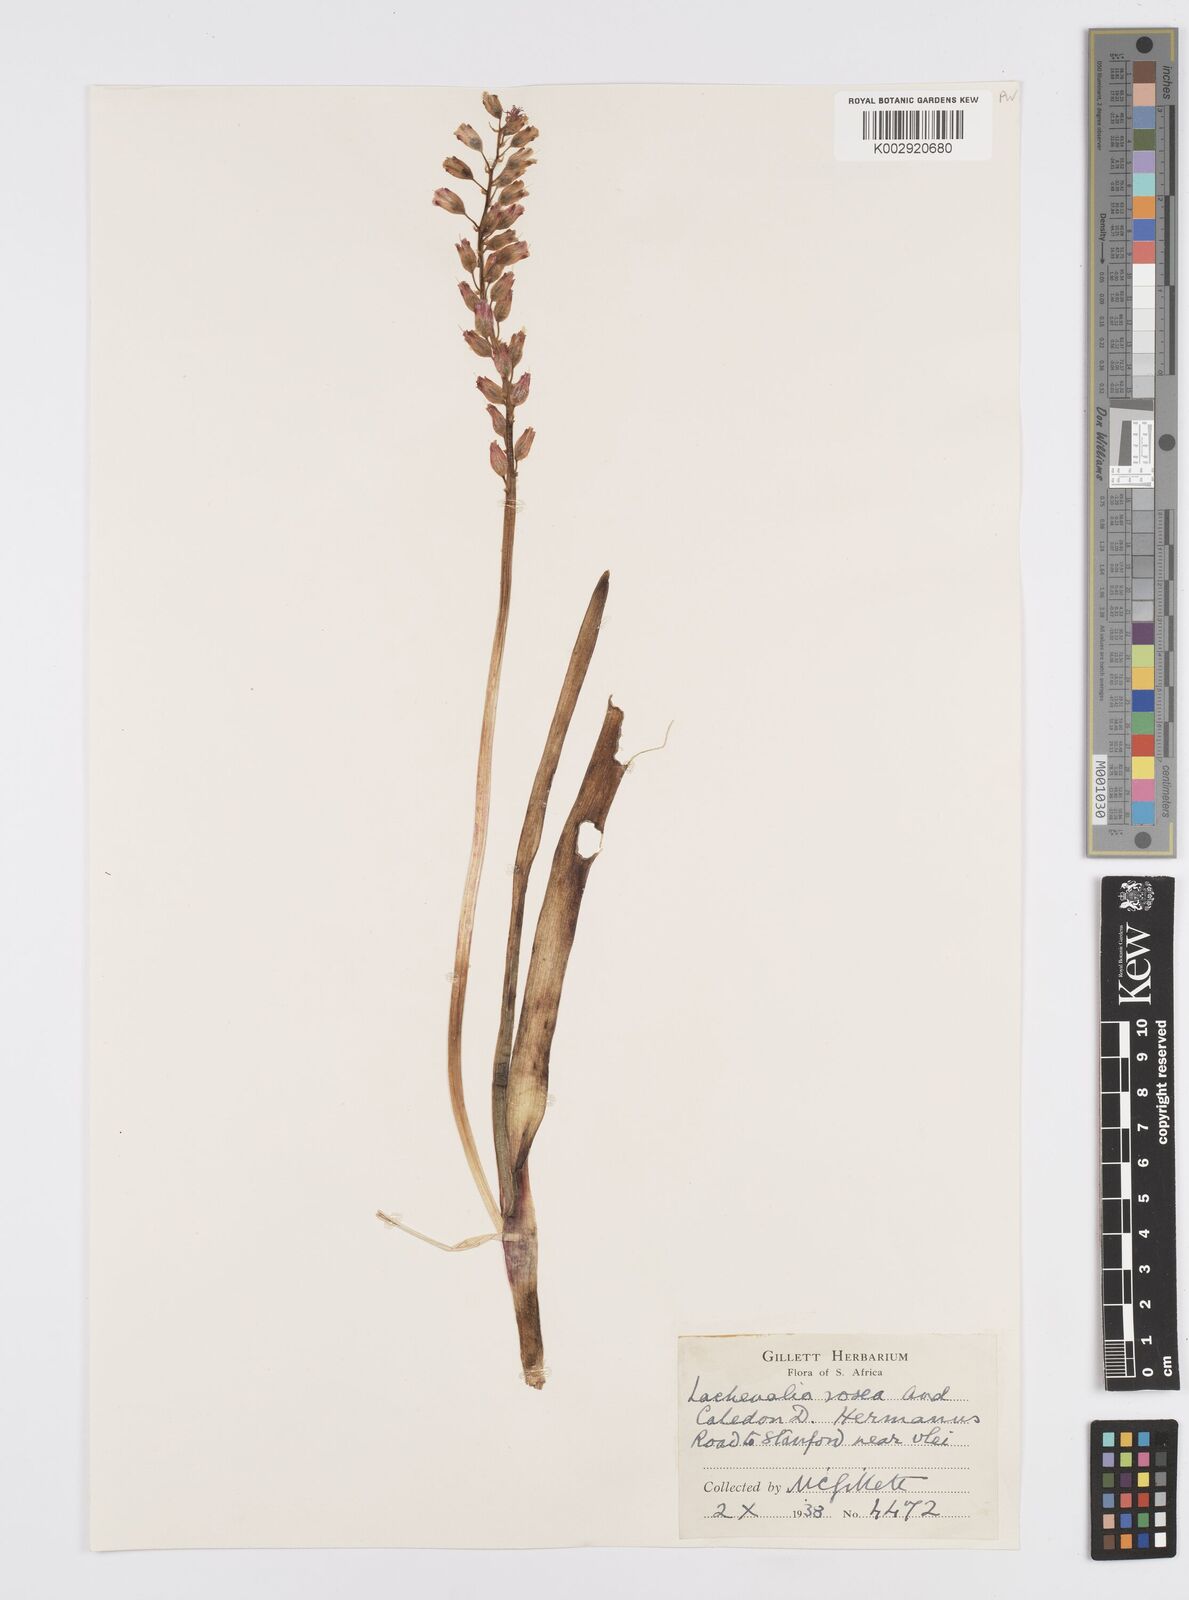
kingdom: Plantae
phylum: Tracheophyta
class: Liliopsida
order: Asparagales
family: Asparagaceae
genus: Lachenalia
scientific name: Lachenalia rosea
